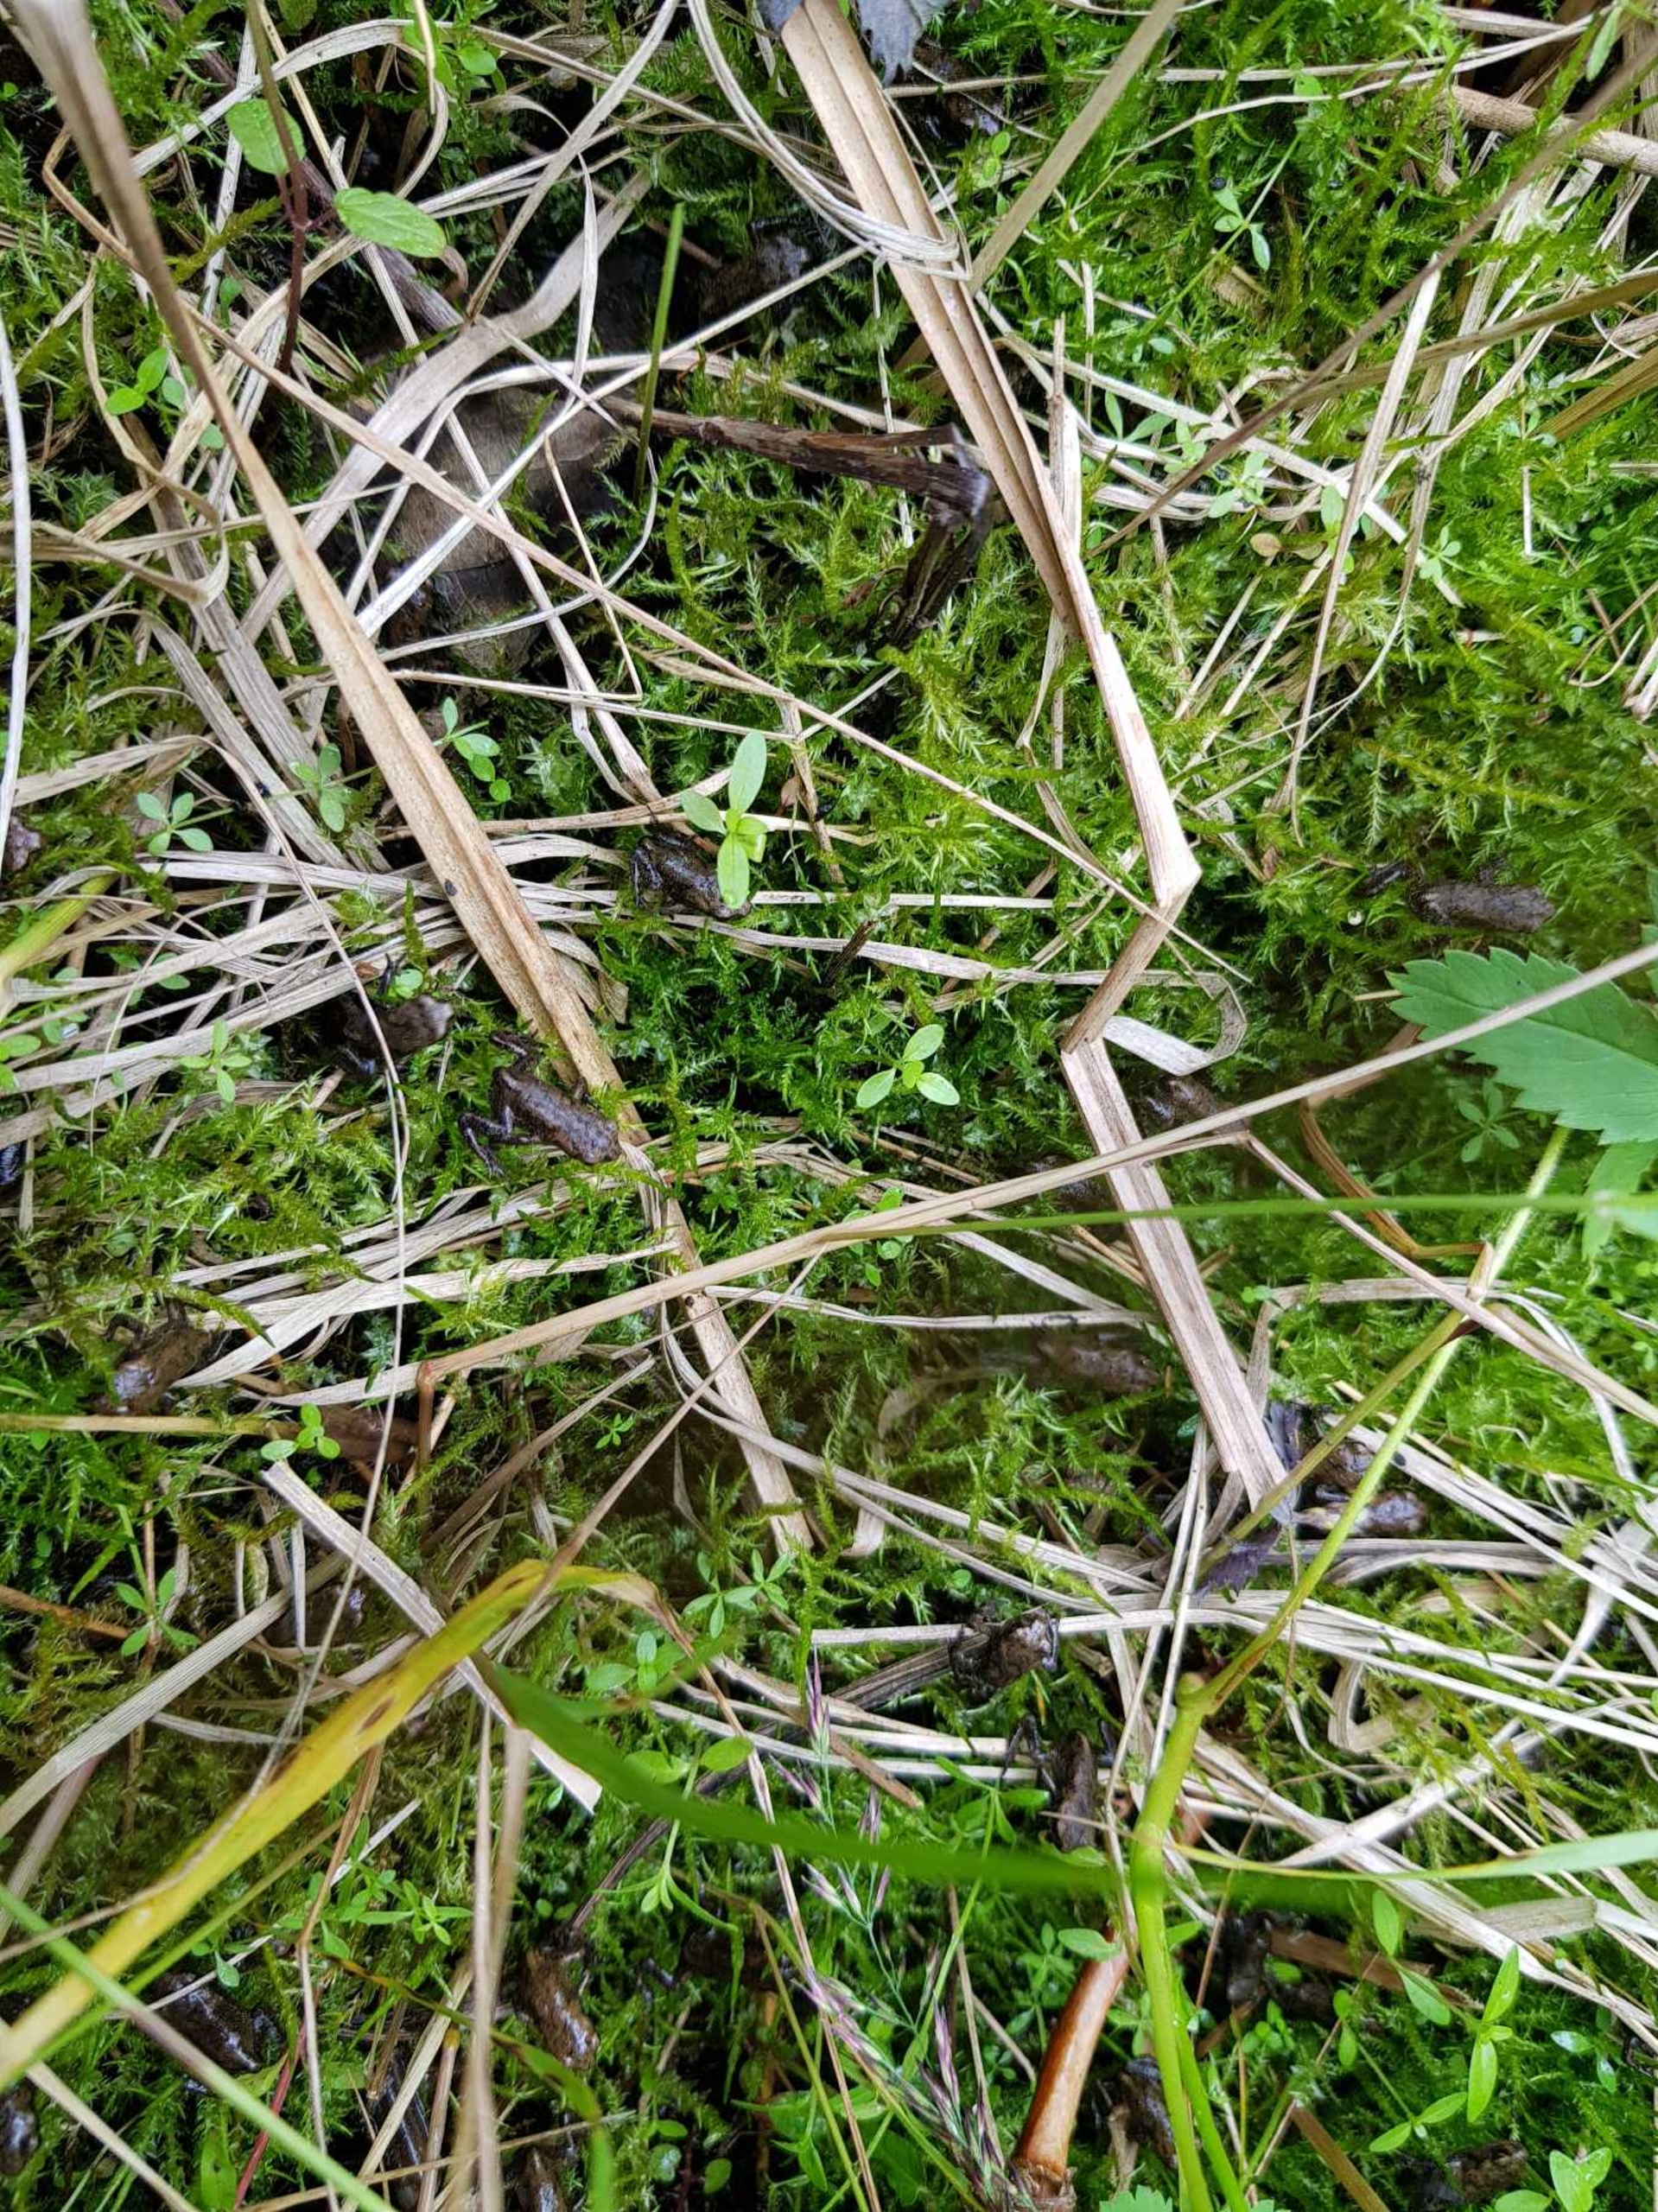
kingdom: Animalia
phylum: Chordata
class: Amphibia
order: Anura
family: Bufonidae
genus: Bufo
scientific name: Bufo bufo
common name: Skrubtudse
